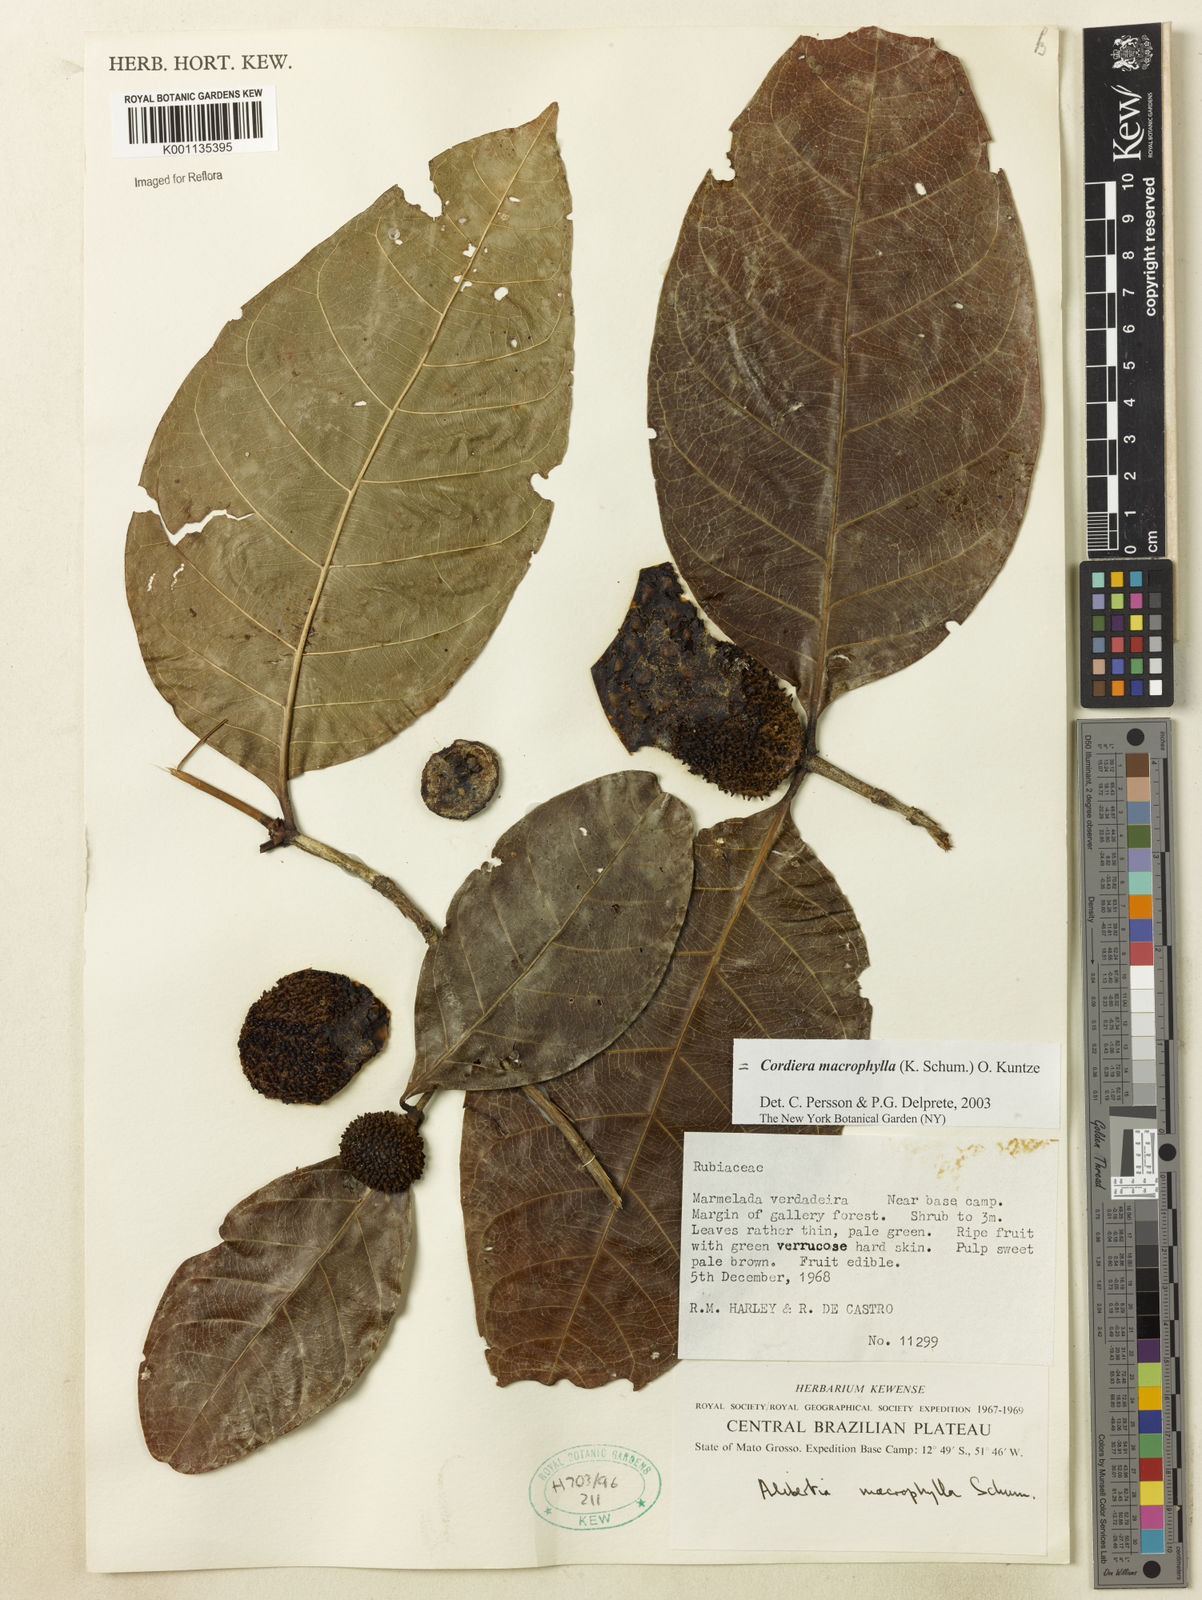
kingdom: Plantae
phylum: Tracheophyta
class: Magnoliopsida
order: Gentianales
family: Rubiaceae
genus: Cordiera
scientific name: Cordiera macrophylla
